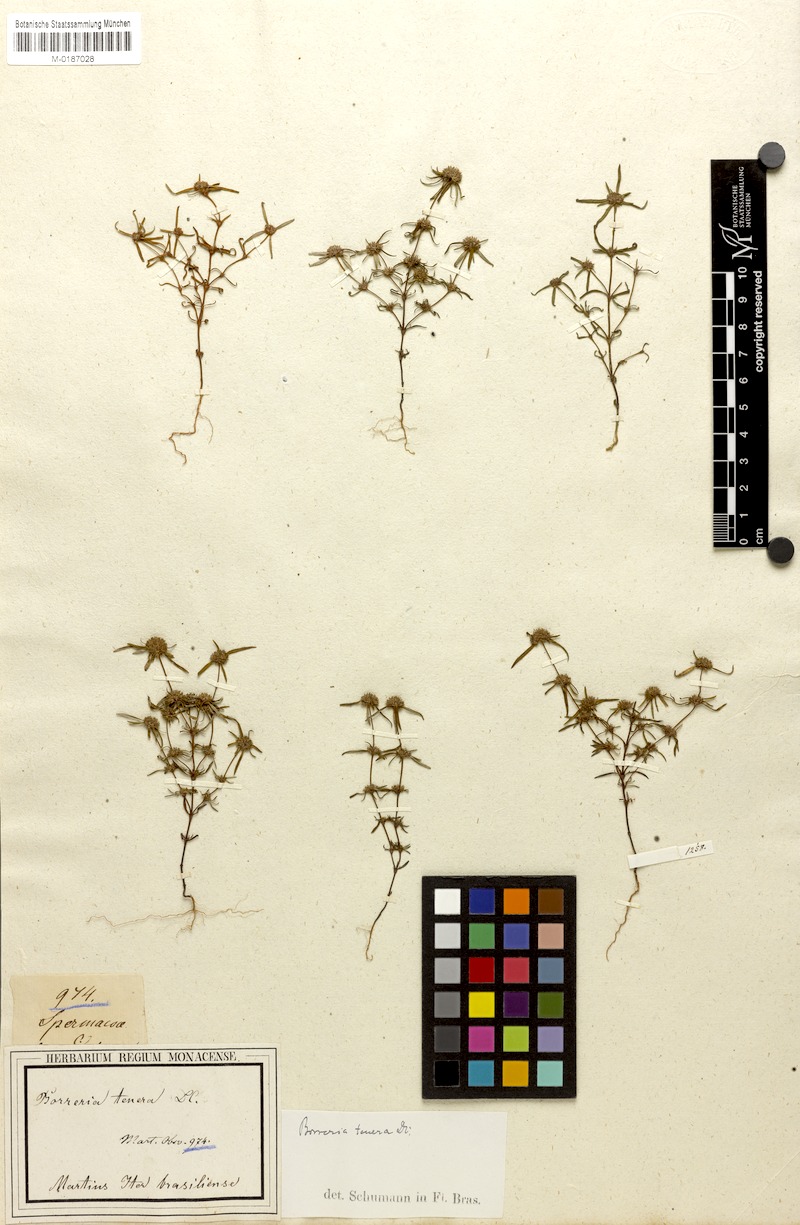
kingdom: Plantae
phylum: Tracheophyta
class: Magnoliopsida
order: Gentianales
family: Rubiaceae
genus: Spermacoce
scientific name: Spermacoce pohliana
